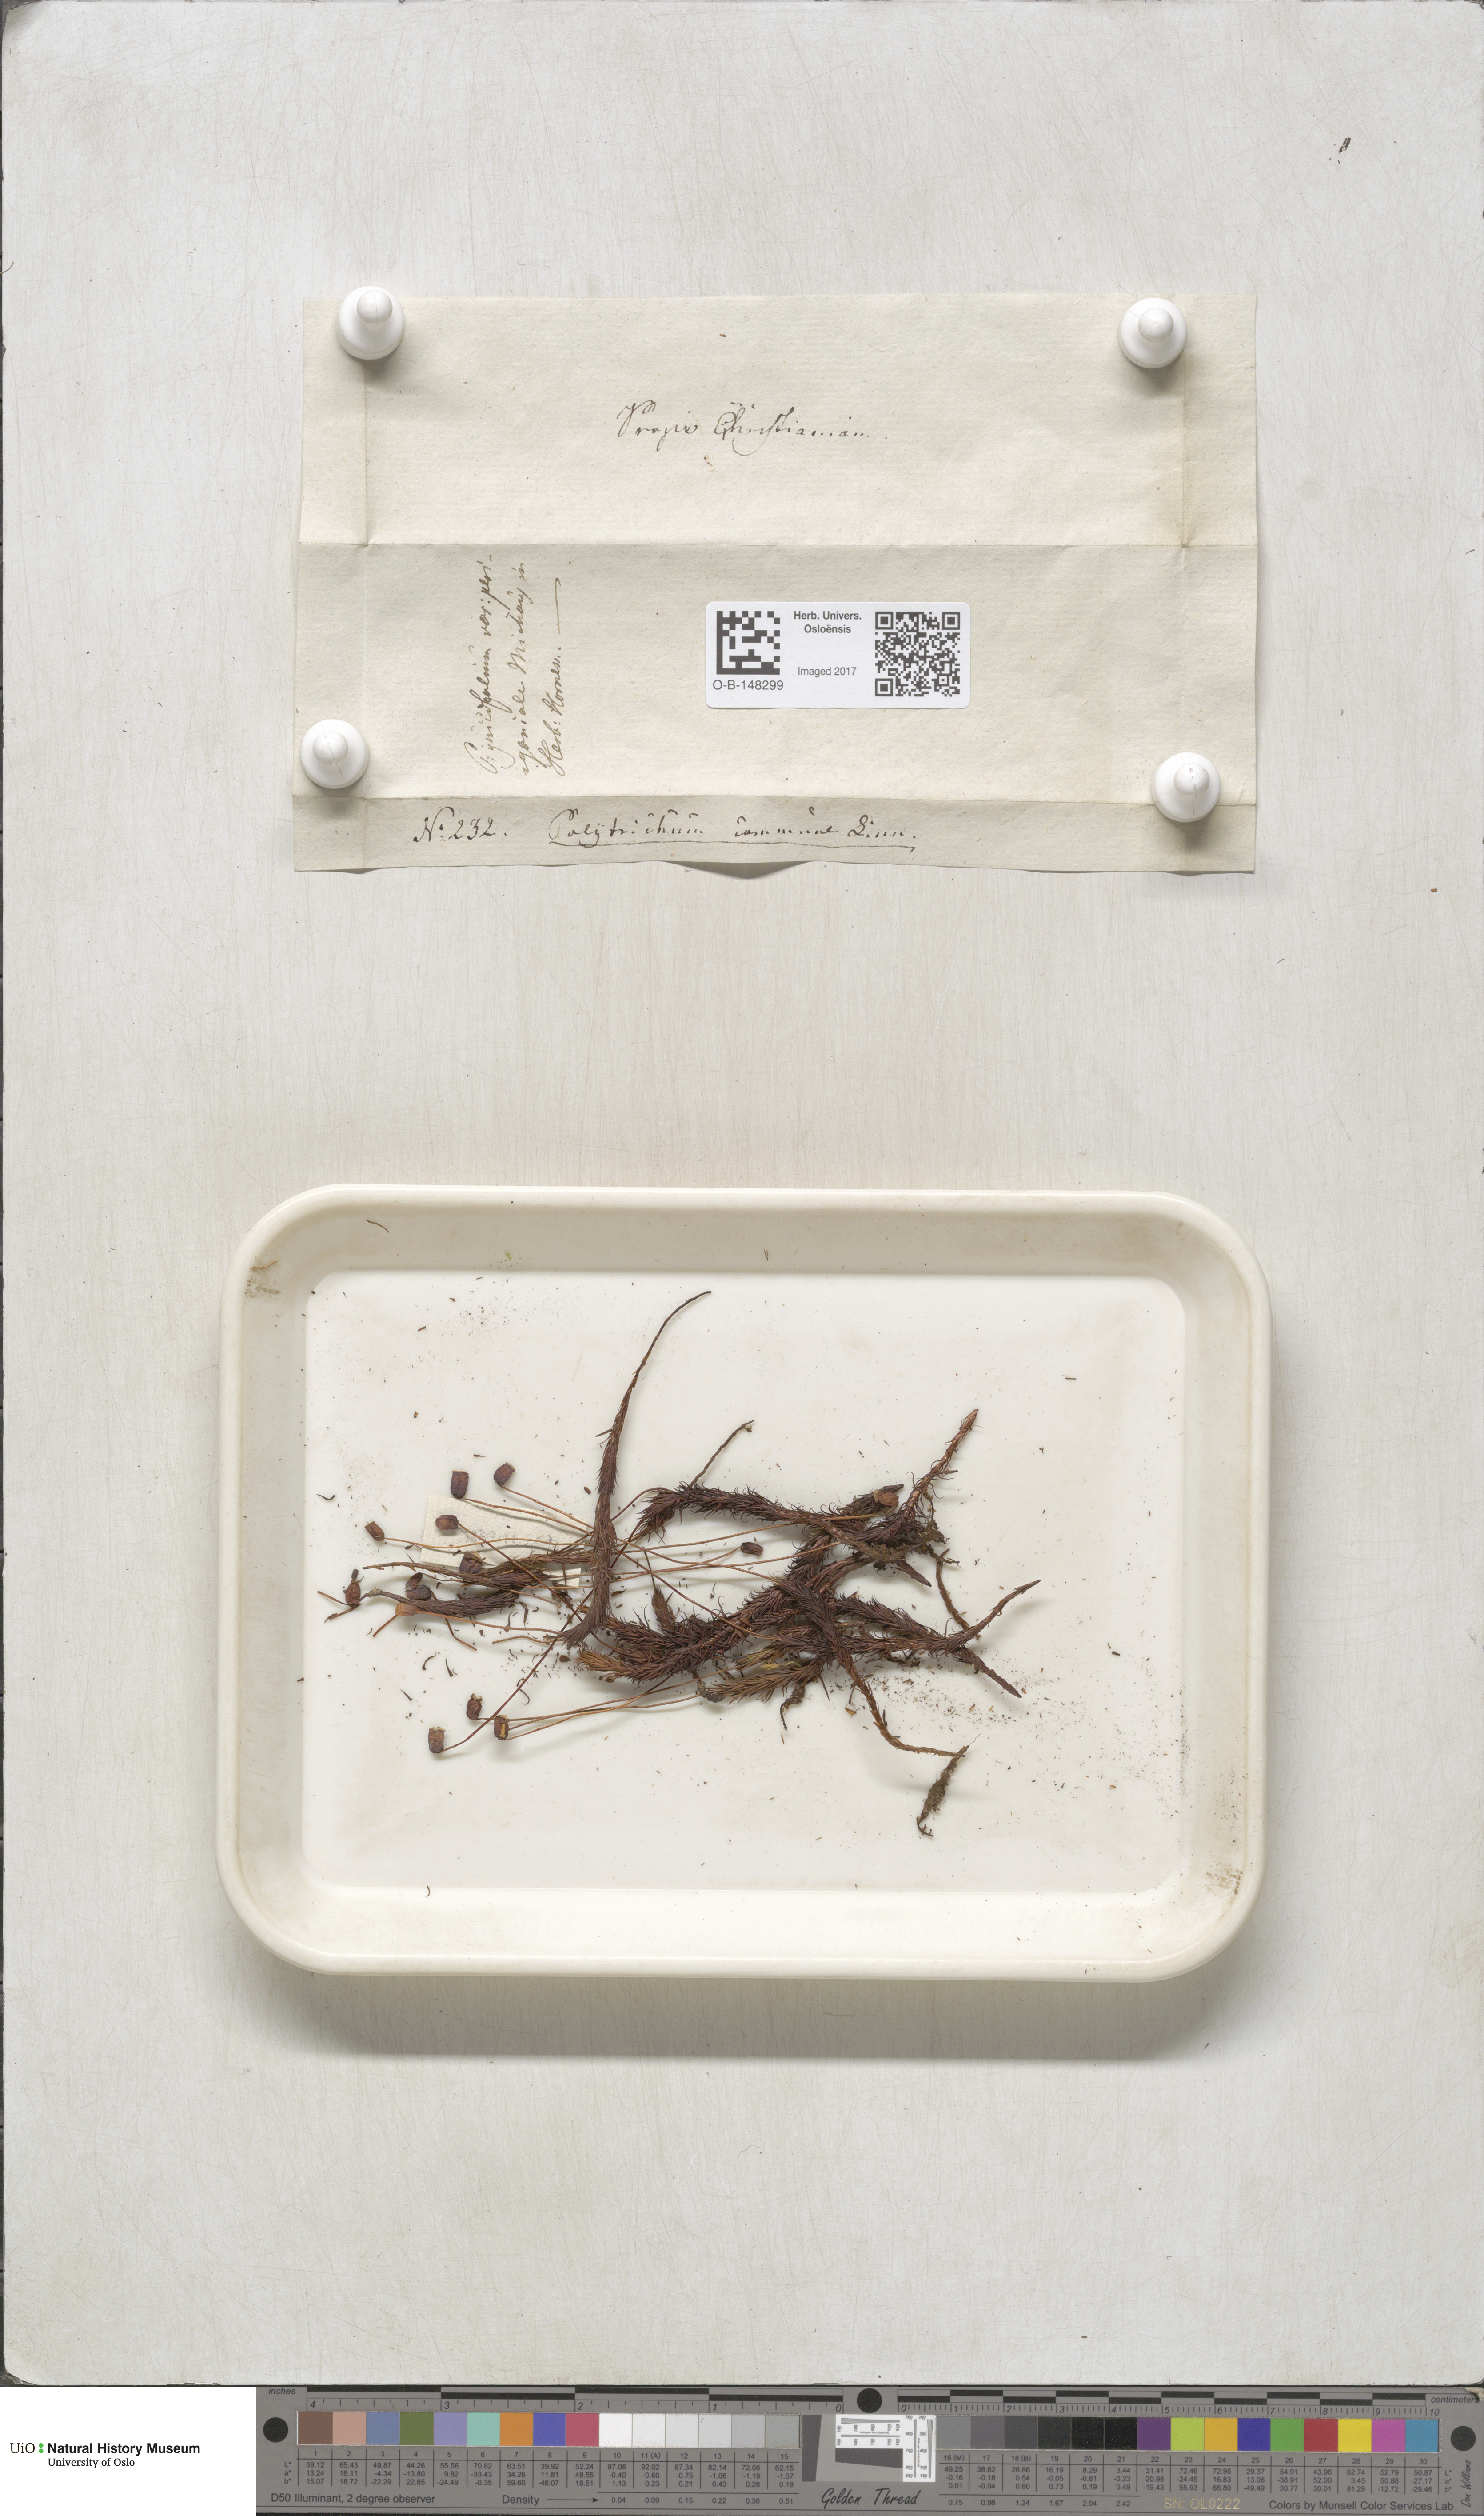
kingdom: Plantae
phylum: Bryophyta
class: Polytrichopsida
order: Polytrichales
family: Polytrichaceae
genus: Polytrichum
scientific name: Polytrichum commune
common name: Common haircap
